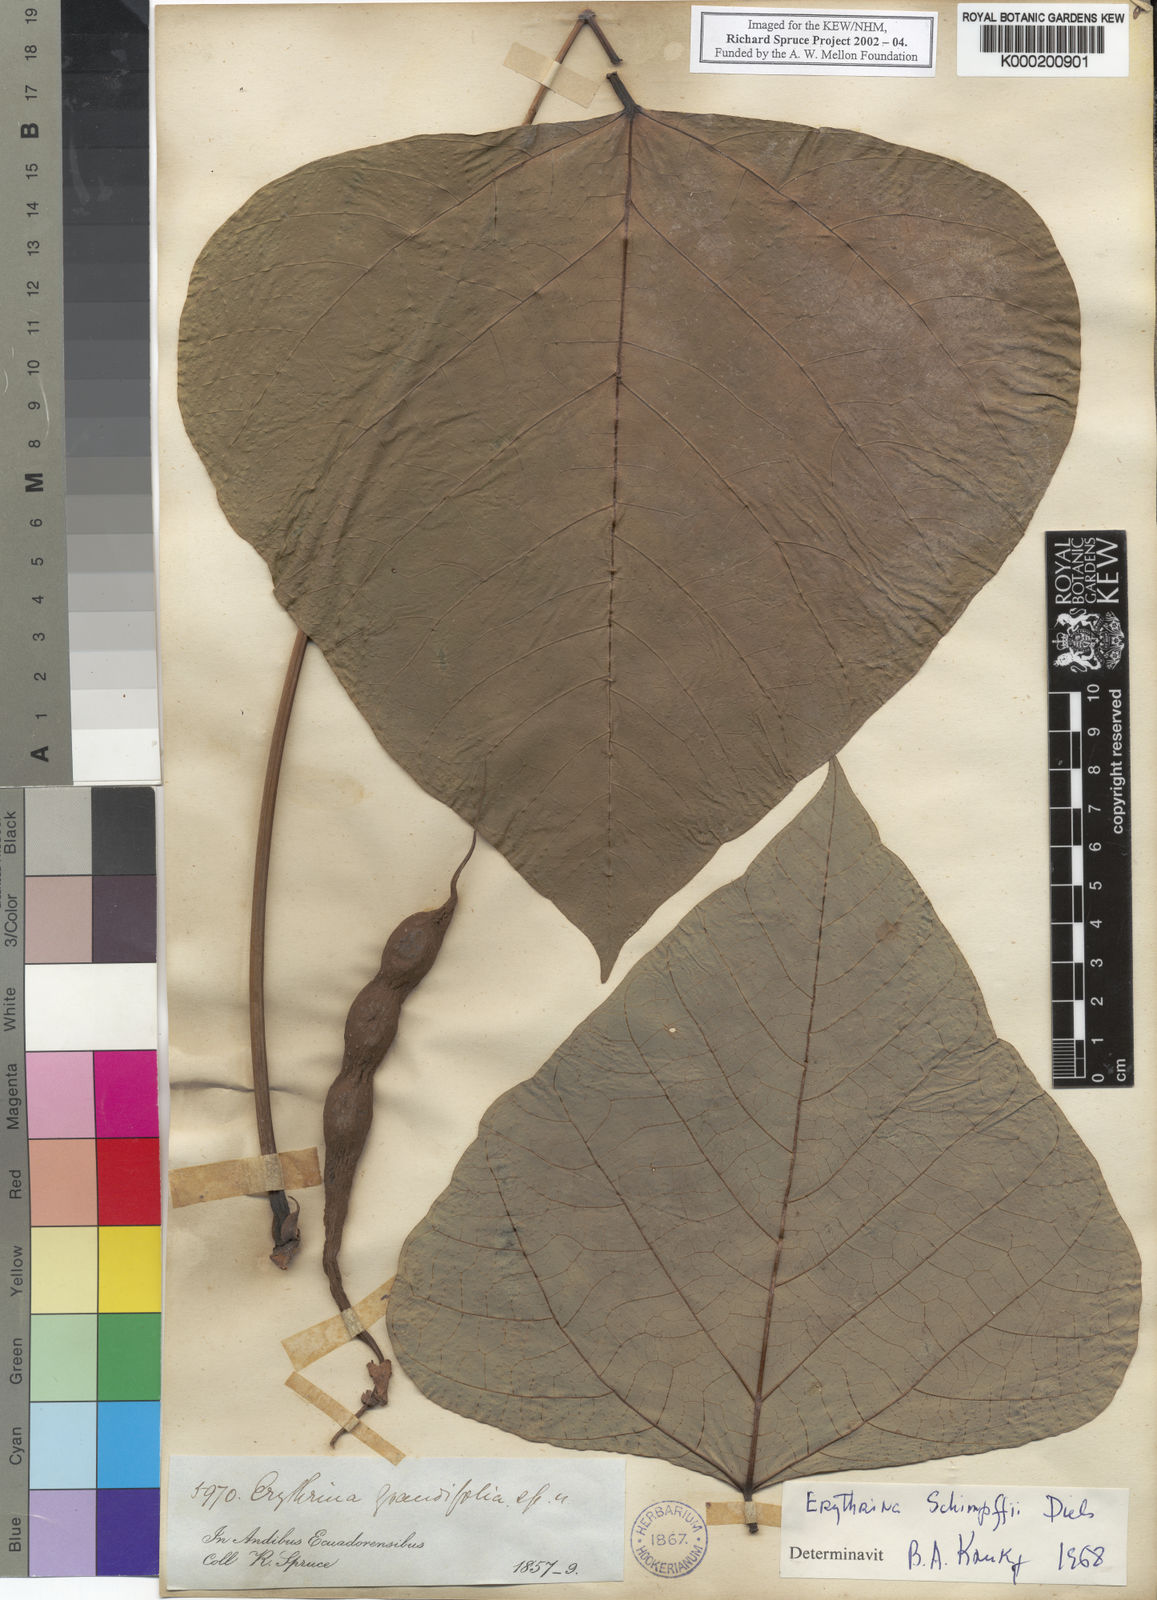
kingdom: Plantae
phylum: Tracheophyta
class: Magnoliopsida
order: Fabales
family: Fabaceae
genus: Erythrina
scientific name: Erythrina schimpffii
